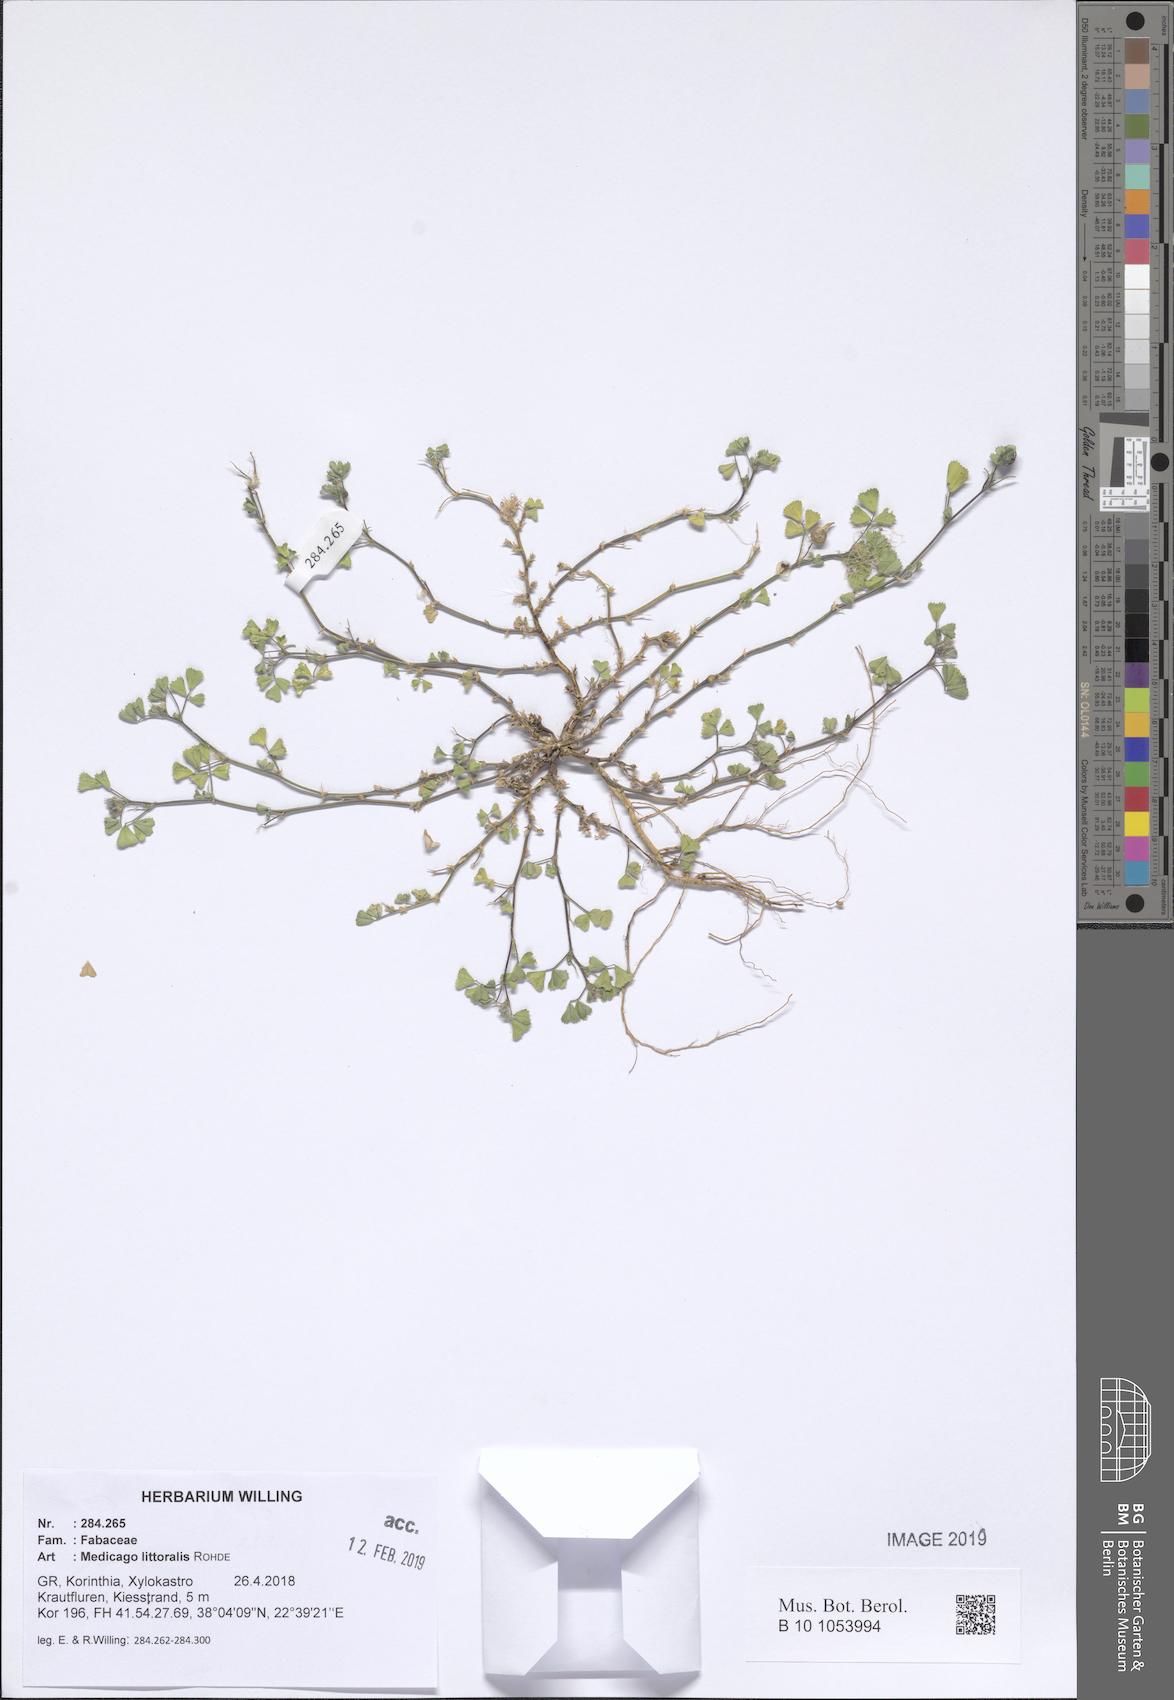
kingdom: Plantae
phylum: Tracheophyta
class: Magnoliopsida
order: Fabales
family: Fabaceae
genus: Medicago
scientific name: Medicago littoralis
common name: Shore medick
